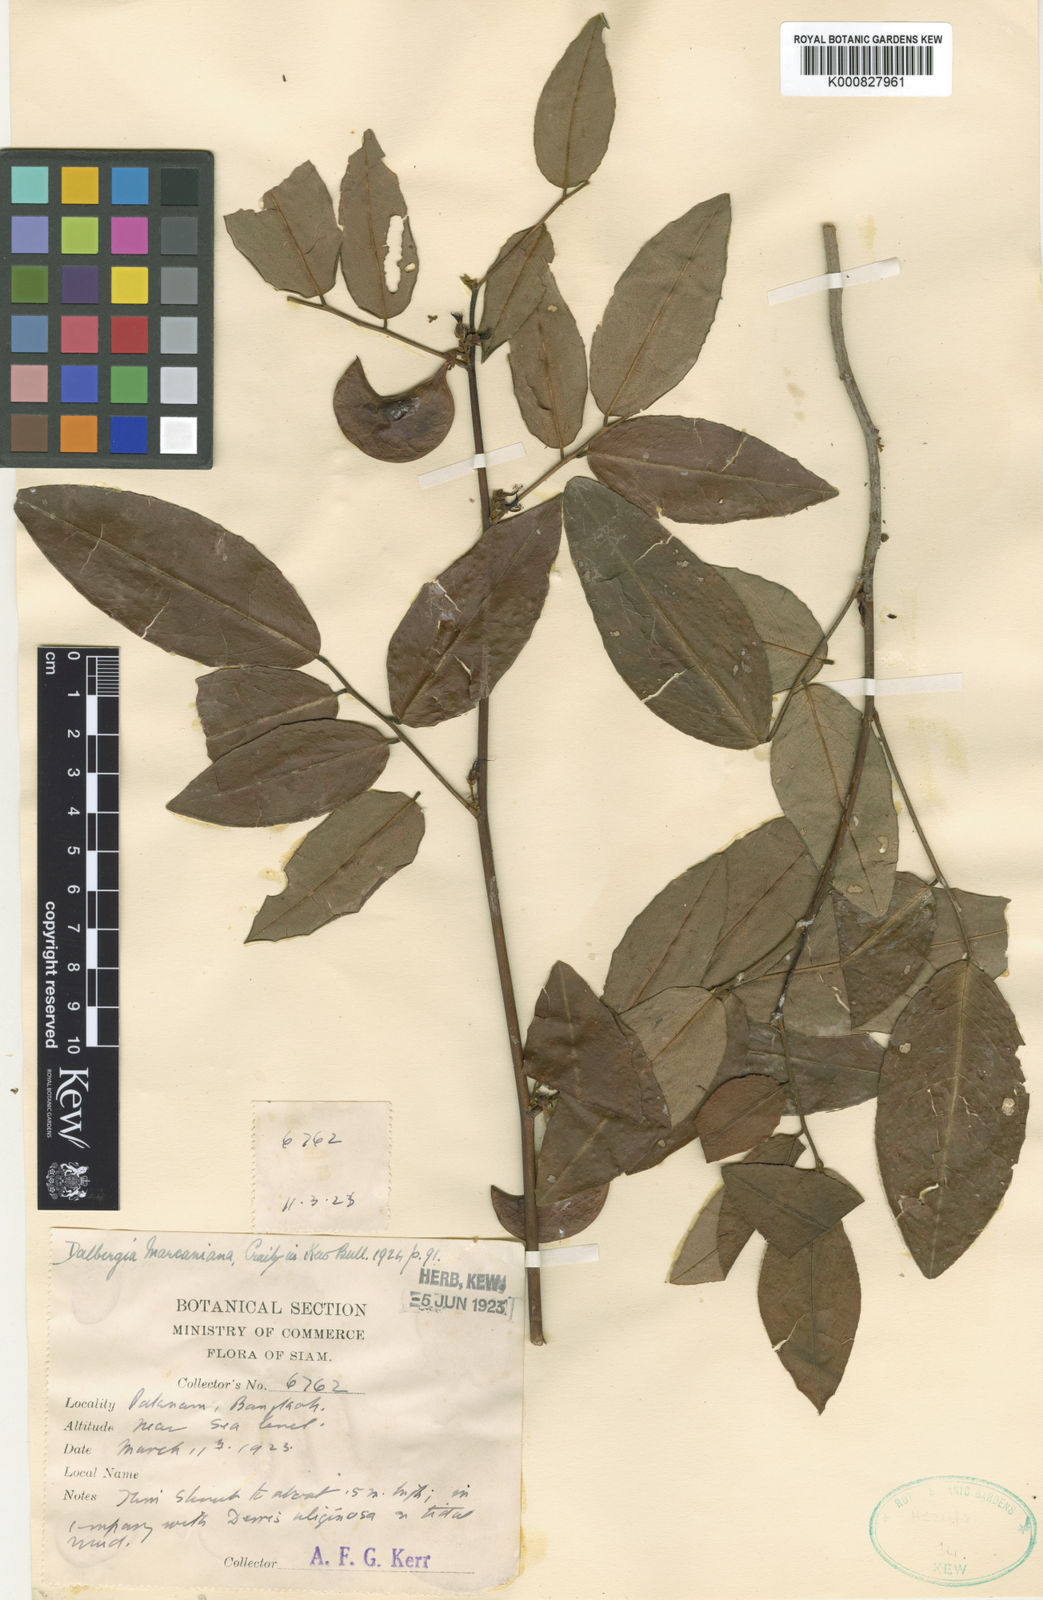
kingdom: Plantae
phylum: Tracheophyta
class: Magnoliopsida
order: Fabales
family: Fabaceae
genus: Dalbergia
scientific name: Dalbergia menoeides
